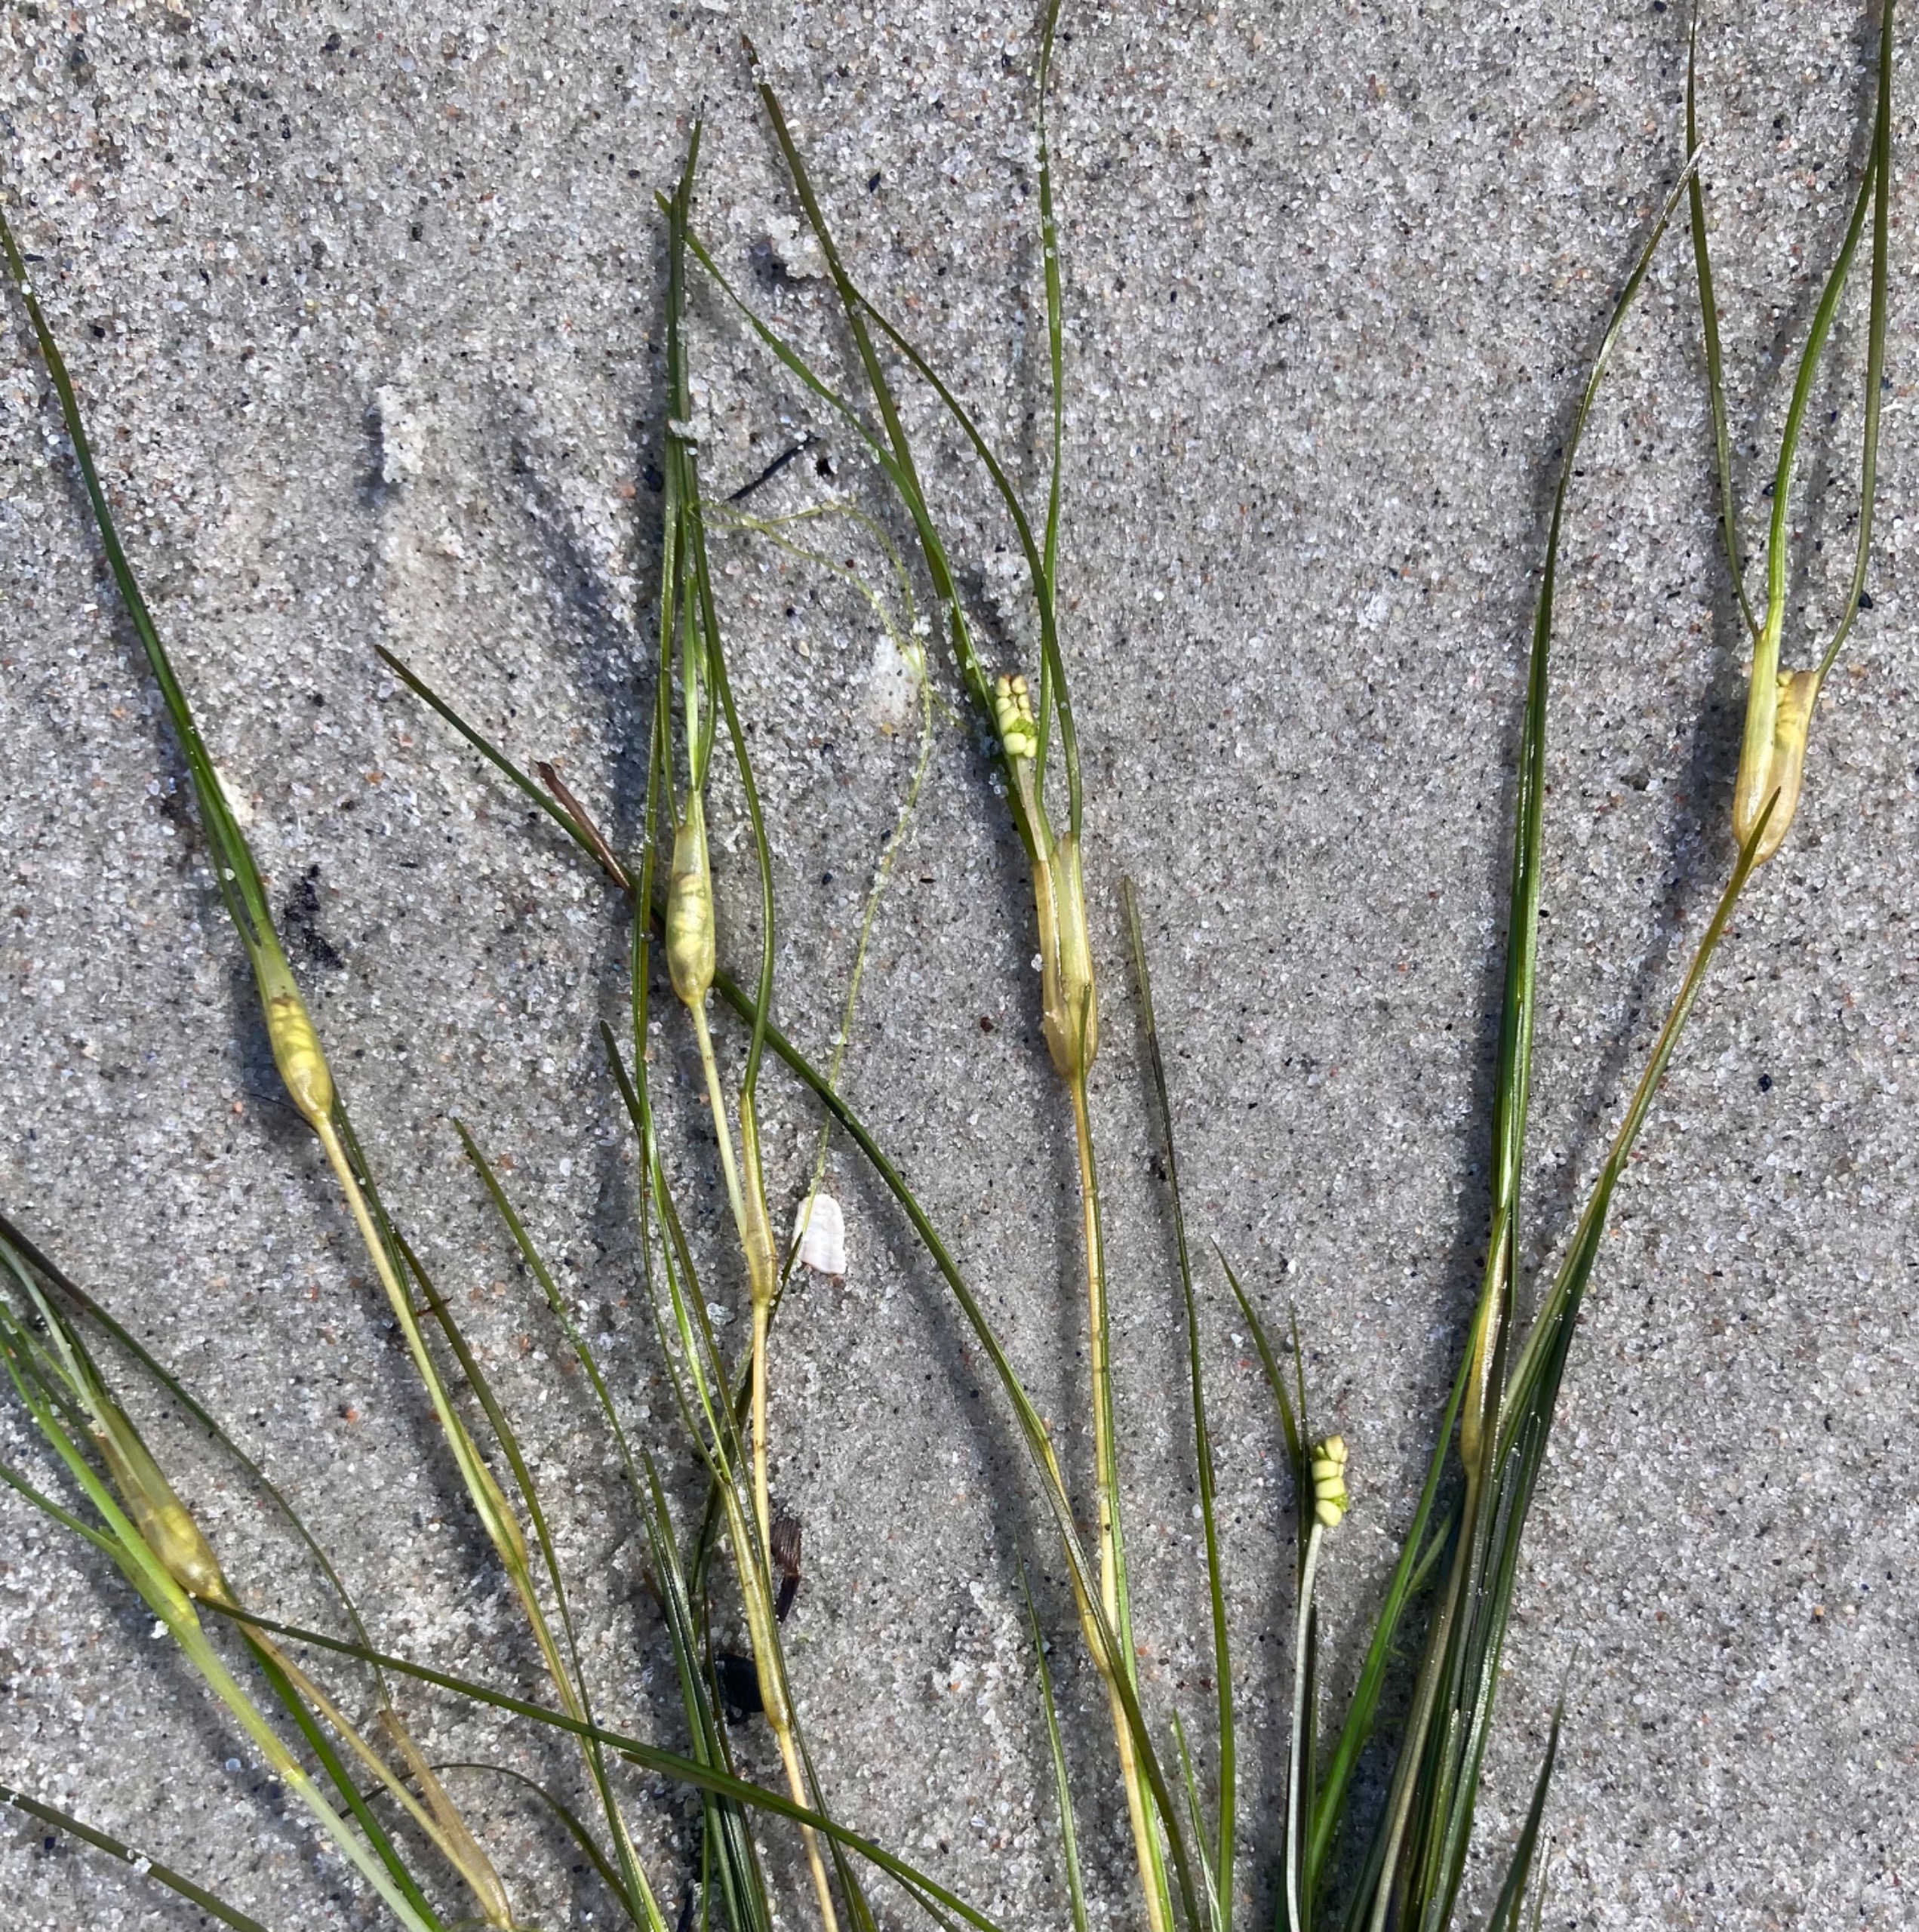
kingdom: Plantae
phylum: Tracheophyta
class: Liliopsida
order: Alismatales
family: Ruppiaceae
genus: Ruppia
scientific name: Ruppia cirrhosa
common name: Langstilket havgræs
